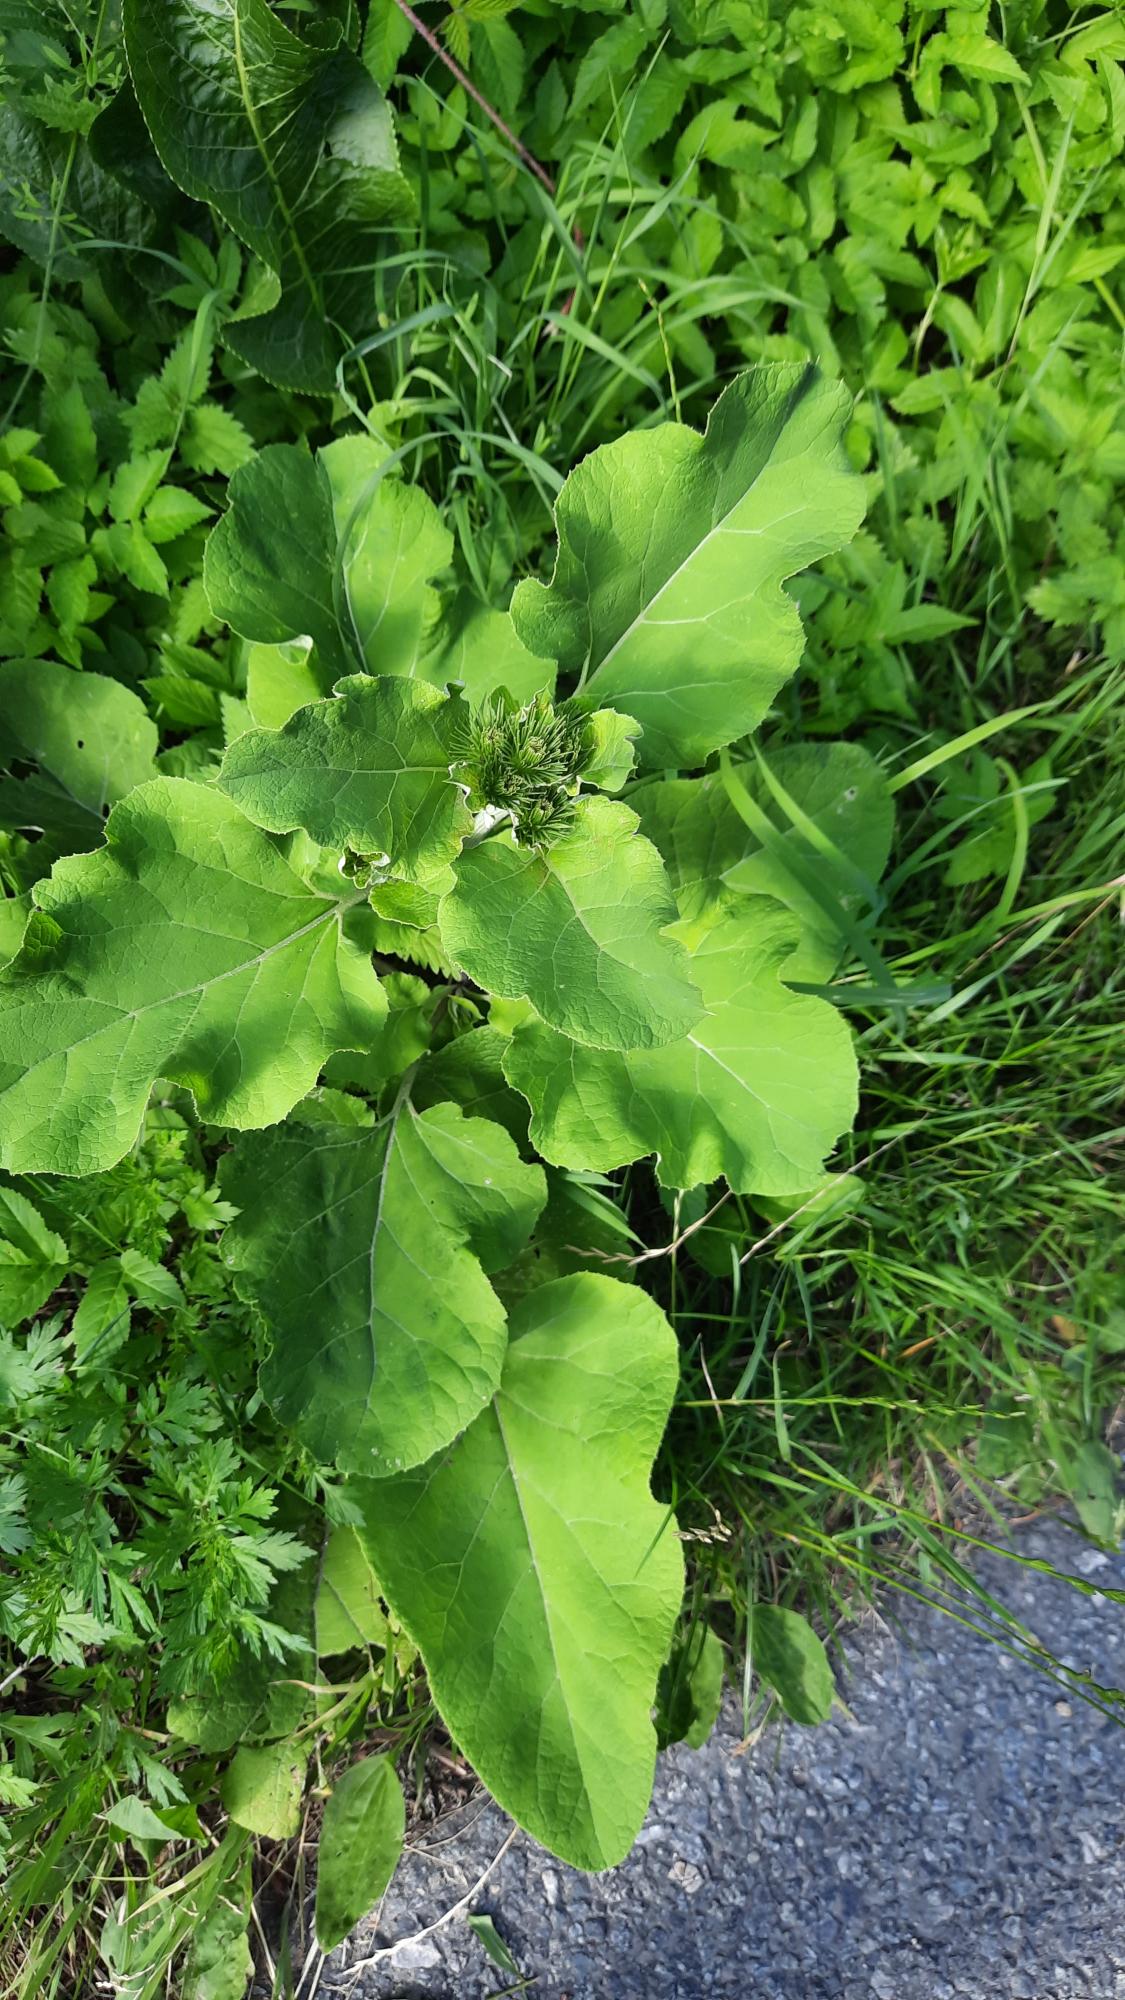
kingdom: Plantae
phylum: Tracheophyta
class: Magnoliopsida
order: Asterales
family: Asteraceae
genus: Arctium
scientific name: Arctium lappa
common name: Glat burre
